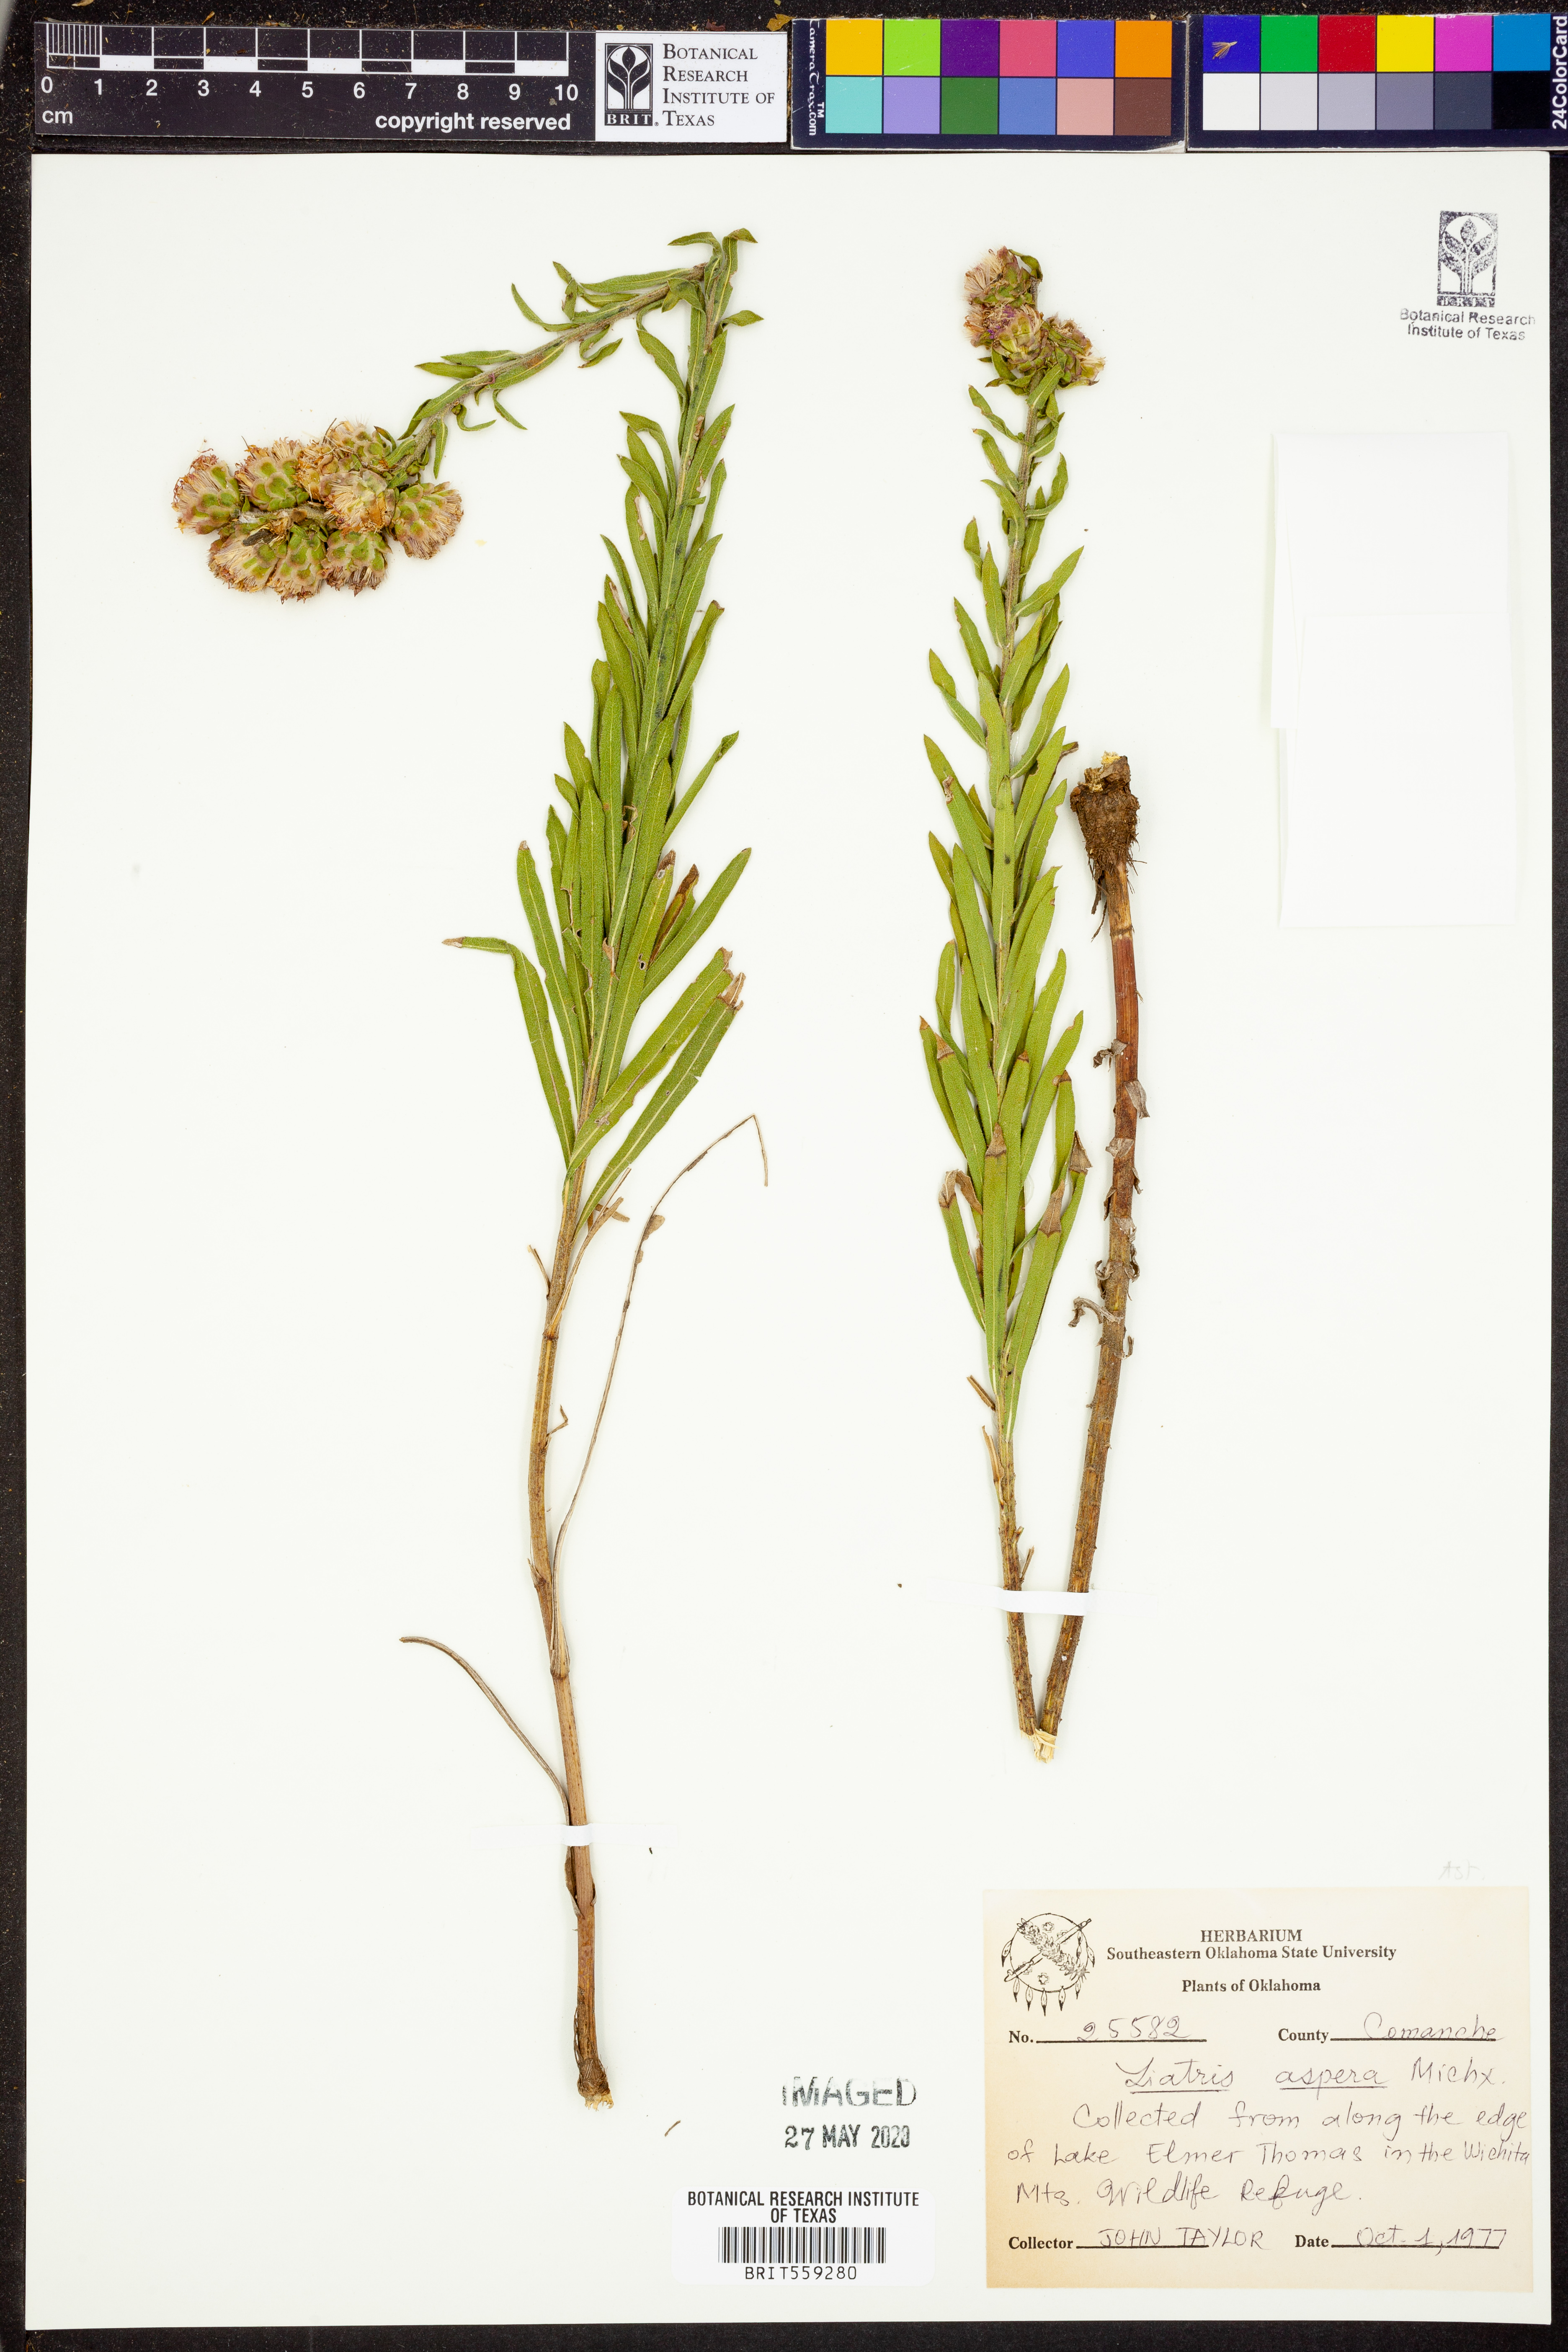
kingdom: Plantae
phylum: Tracheophyta
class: Magnoliopsida
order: Asterales
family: Asteraceae
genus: Liatris
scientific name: Liatris aspera
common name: Lacerate blazing-star
